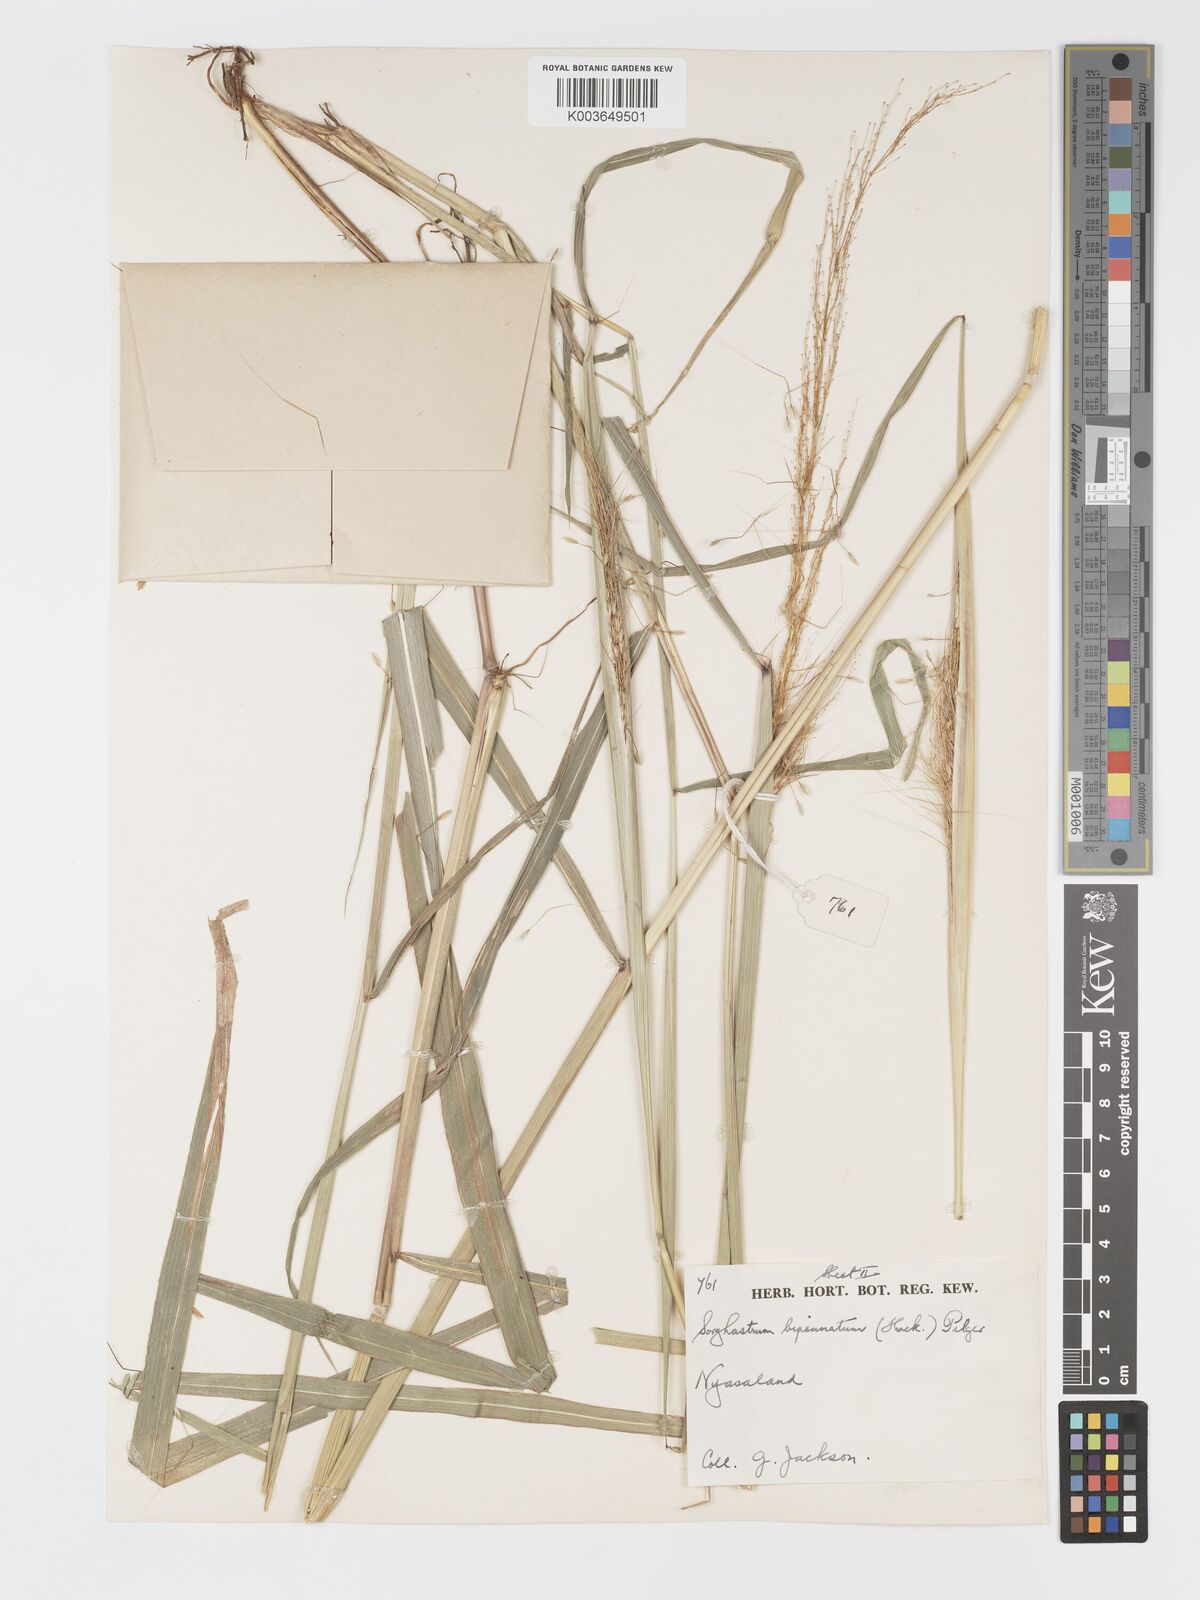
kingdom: Plantae
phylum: Tracheophyta
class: Liliopsida
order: Poales
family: Poaceae
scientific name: Poaceae
